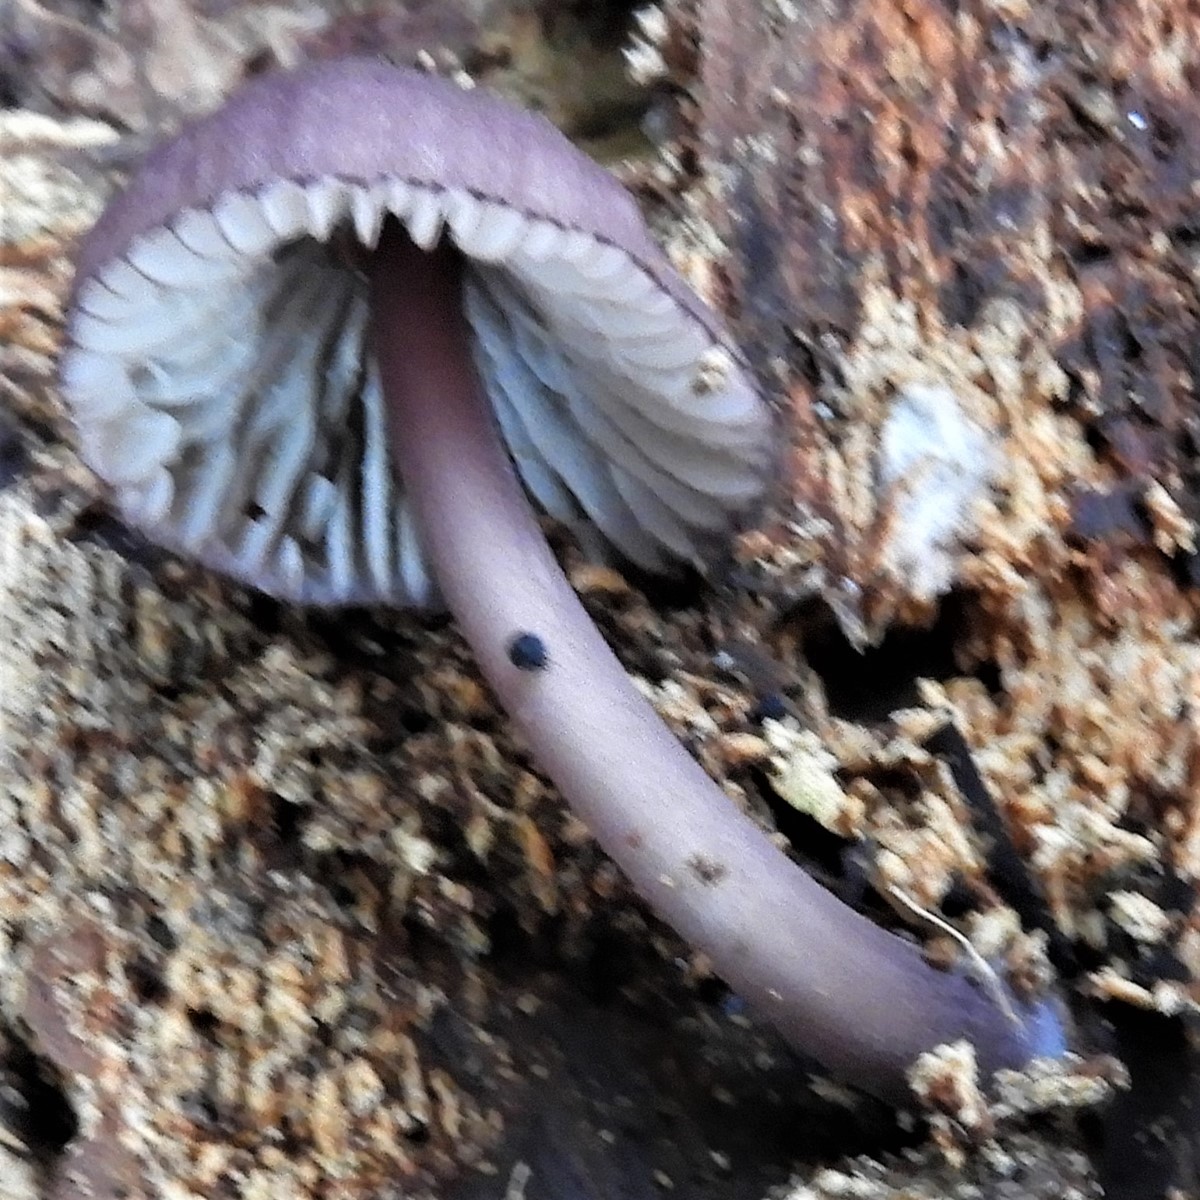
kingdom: Fungi
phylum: Basidiomycota
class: Agaricomycetes
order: Agaricales
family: Mycenaceae
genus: Mycena
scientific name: Mycena purpureofusca
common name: purpur-huesvamp
